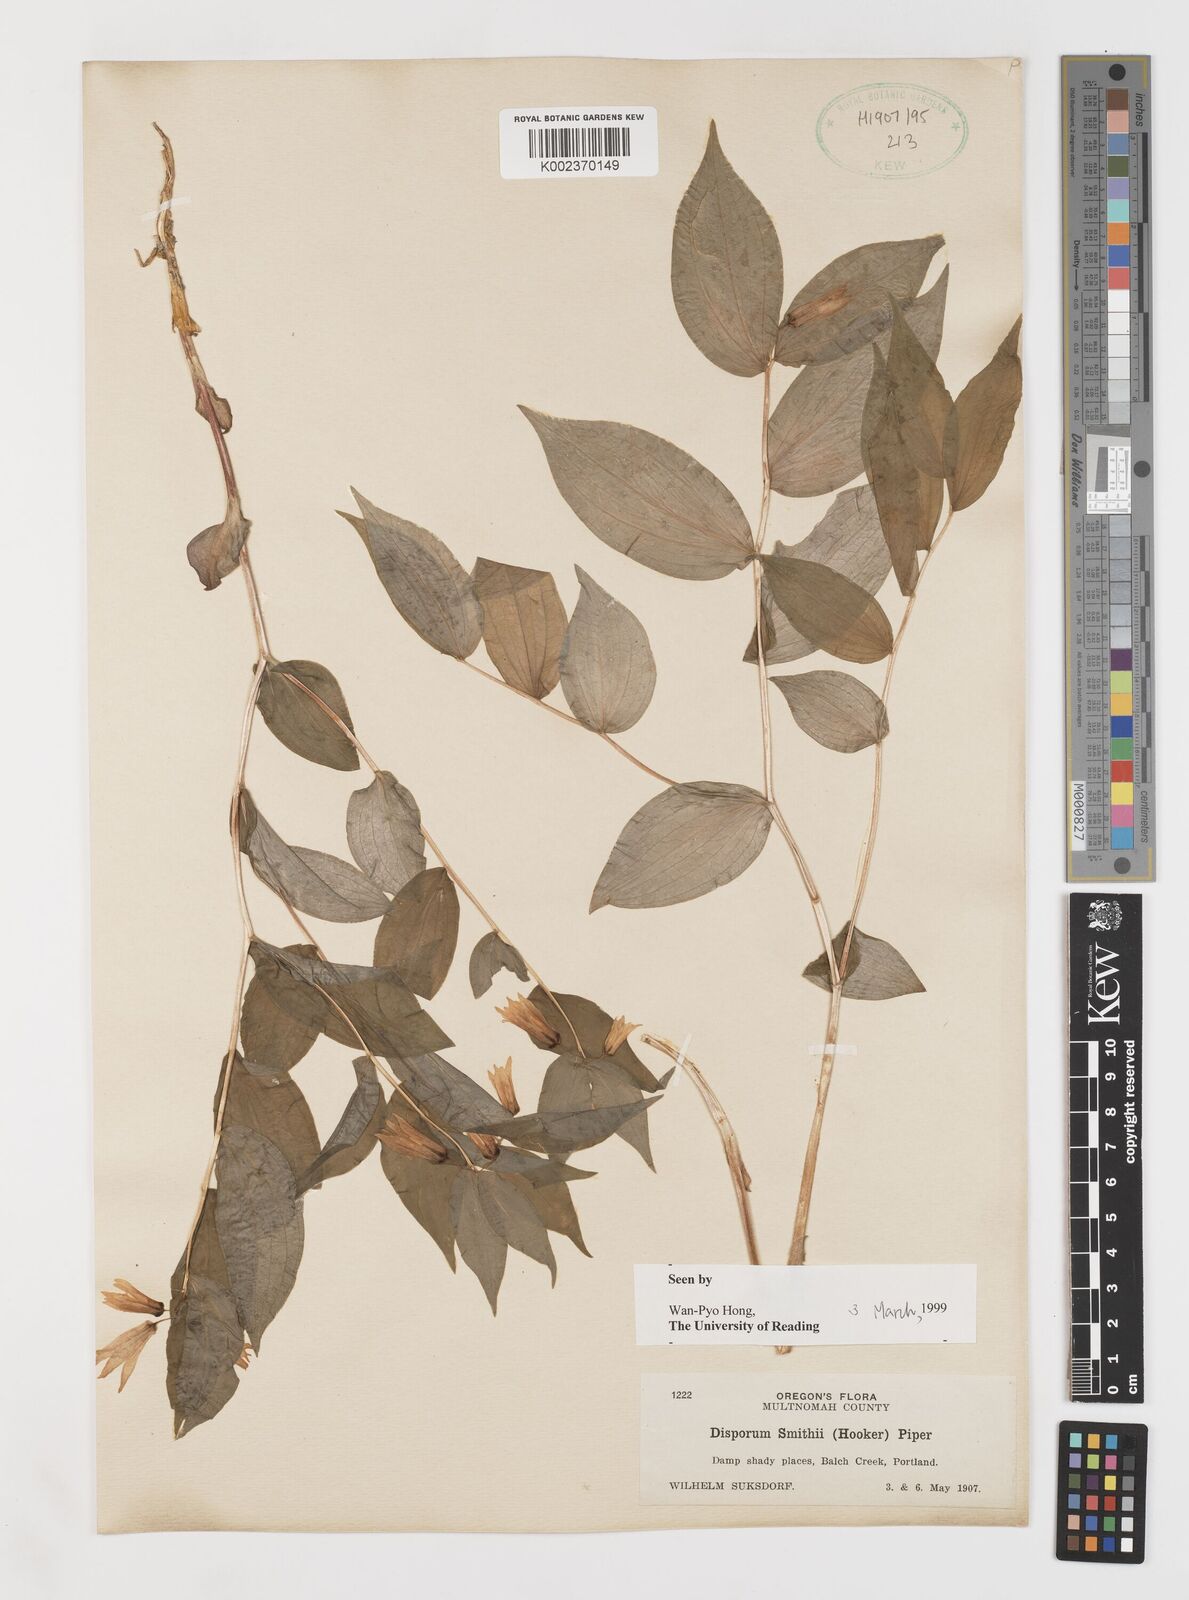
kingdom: Plantae
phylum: Tracheophyta
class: Liliopsida
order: Liliales
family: Liliaceae
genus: Prosartes
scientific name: Prosartes smithii
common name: Fairy-lantern
